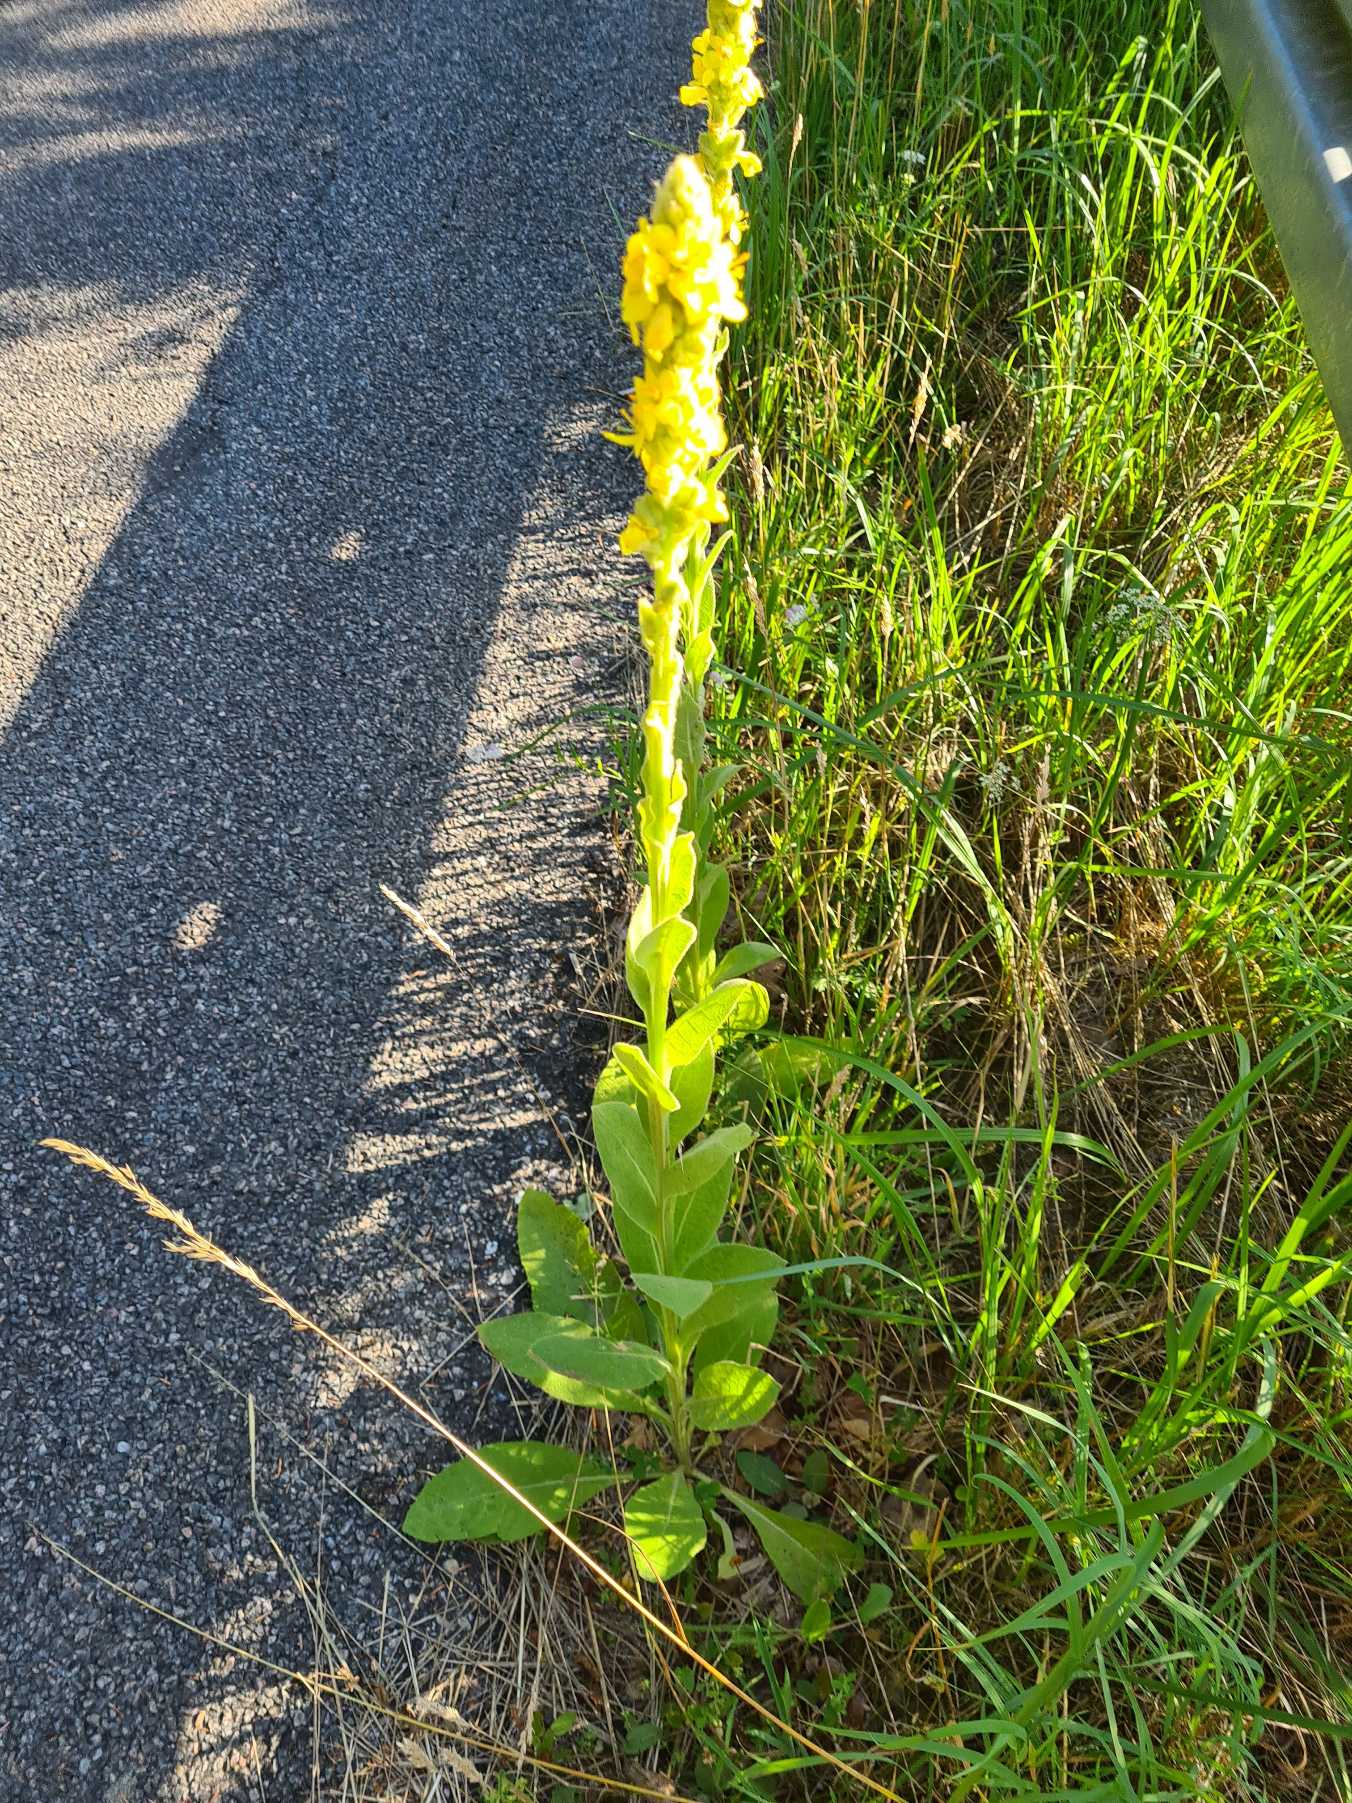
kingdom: Plantae
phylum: Tracheophyta
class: Magnoliopsida
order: Lamiales
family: Scrophulariaceae
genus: Verbascum
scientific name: Verbascum thapsus
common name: Filtbladet kongelys
